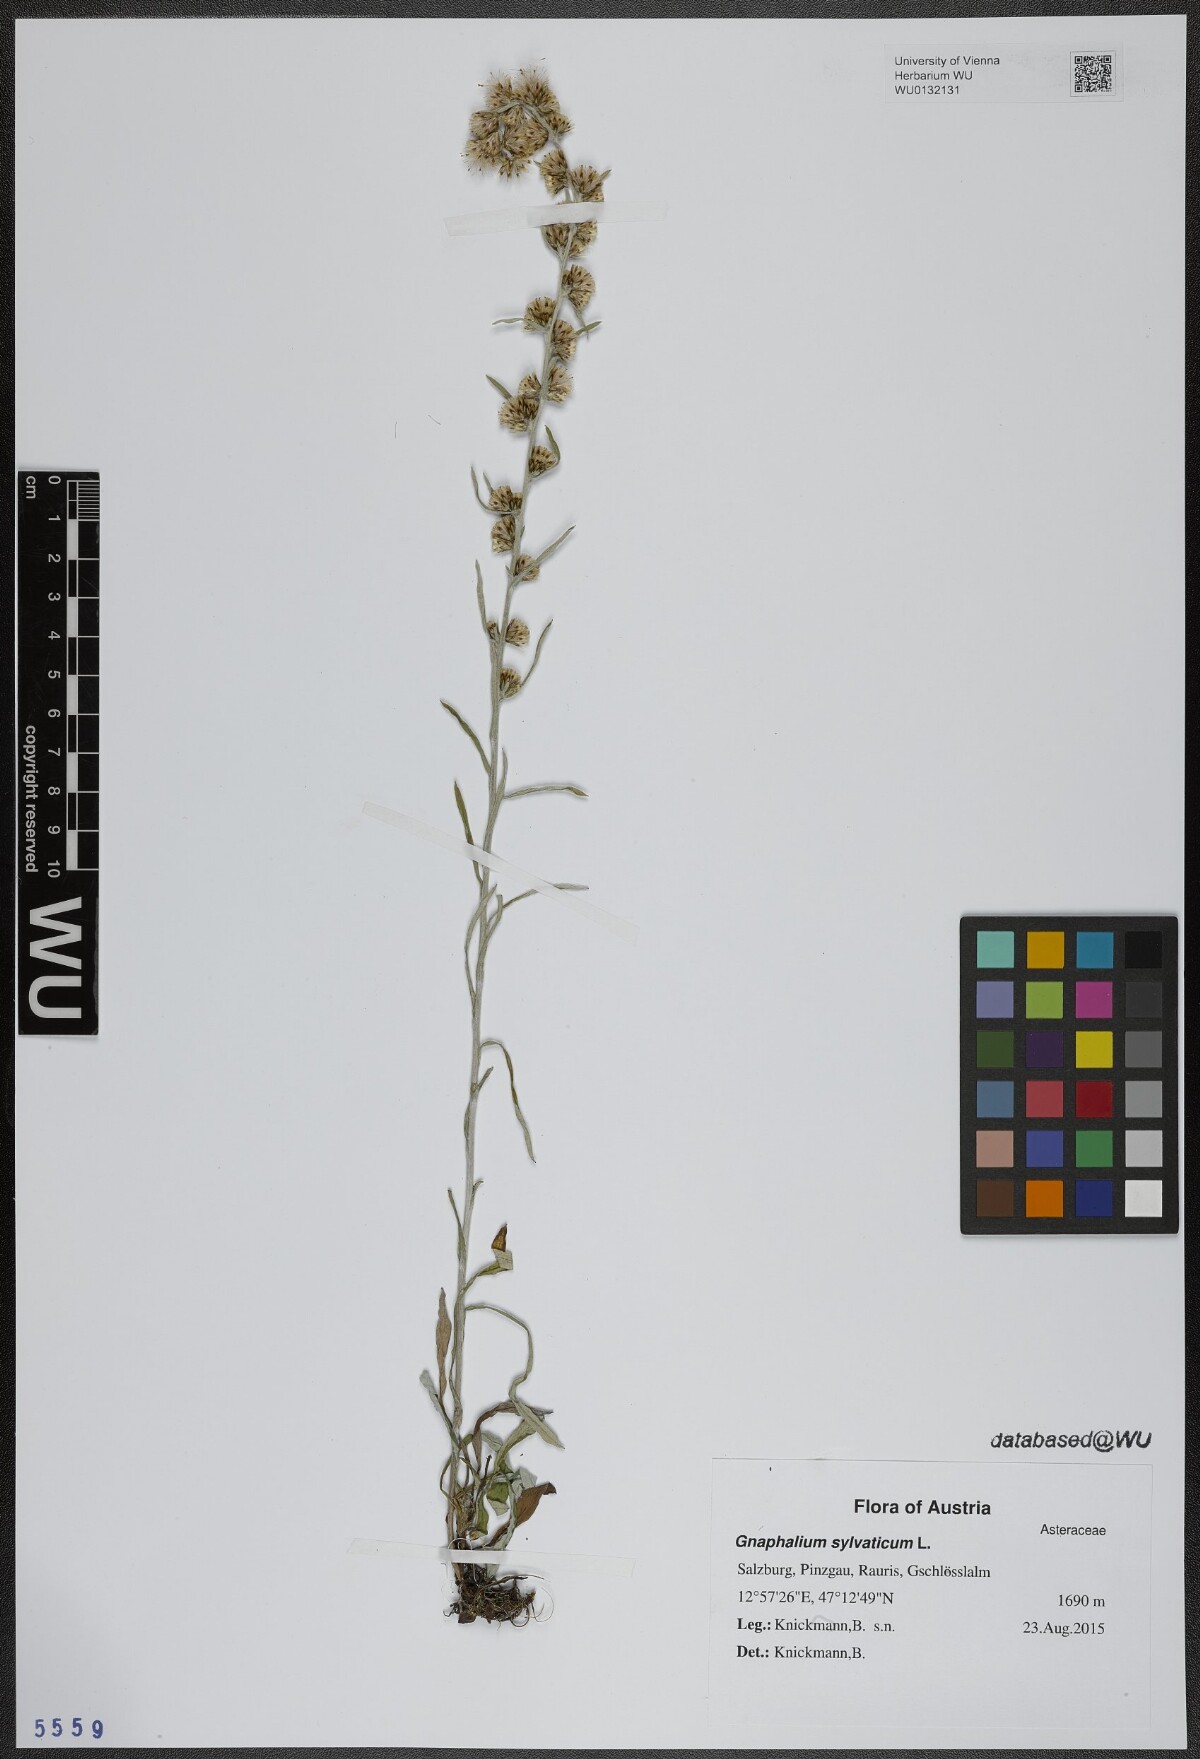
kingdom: Plantae
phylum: Tracheophyta
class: Magnoliopsida
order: Asterales
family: Asteraceae
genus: Omalotheca
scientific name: Omalotheca sylvatica
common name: Heath cudweed
